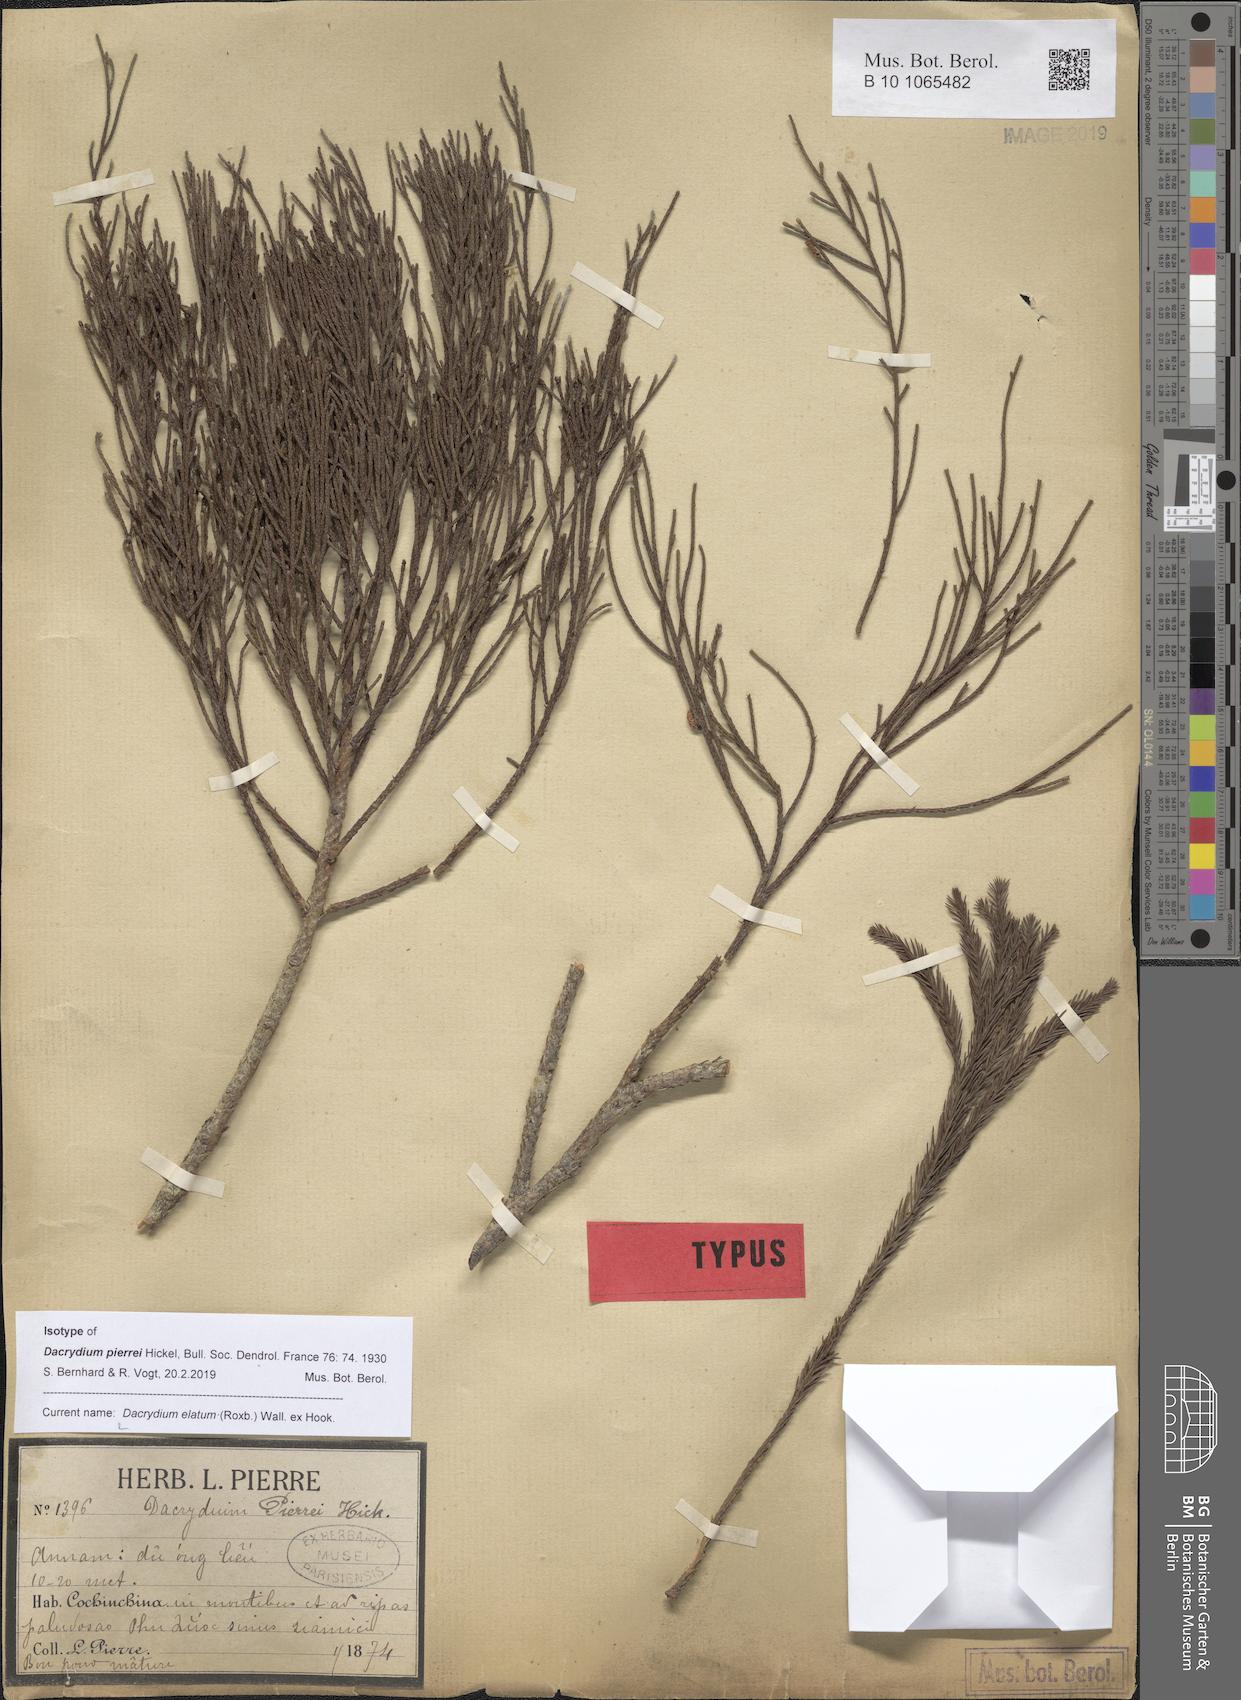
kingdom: Plantae
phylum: Tracheophyta
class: Pinopsida
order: Pinales
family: Podocarpaceae
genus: Dacrydium
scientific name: Dacrydium elatum
